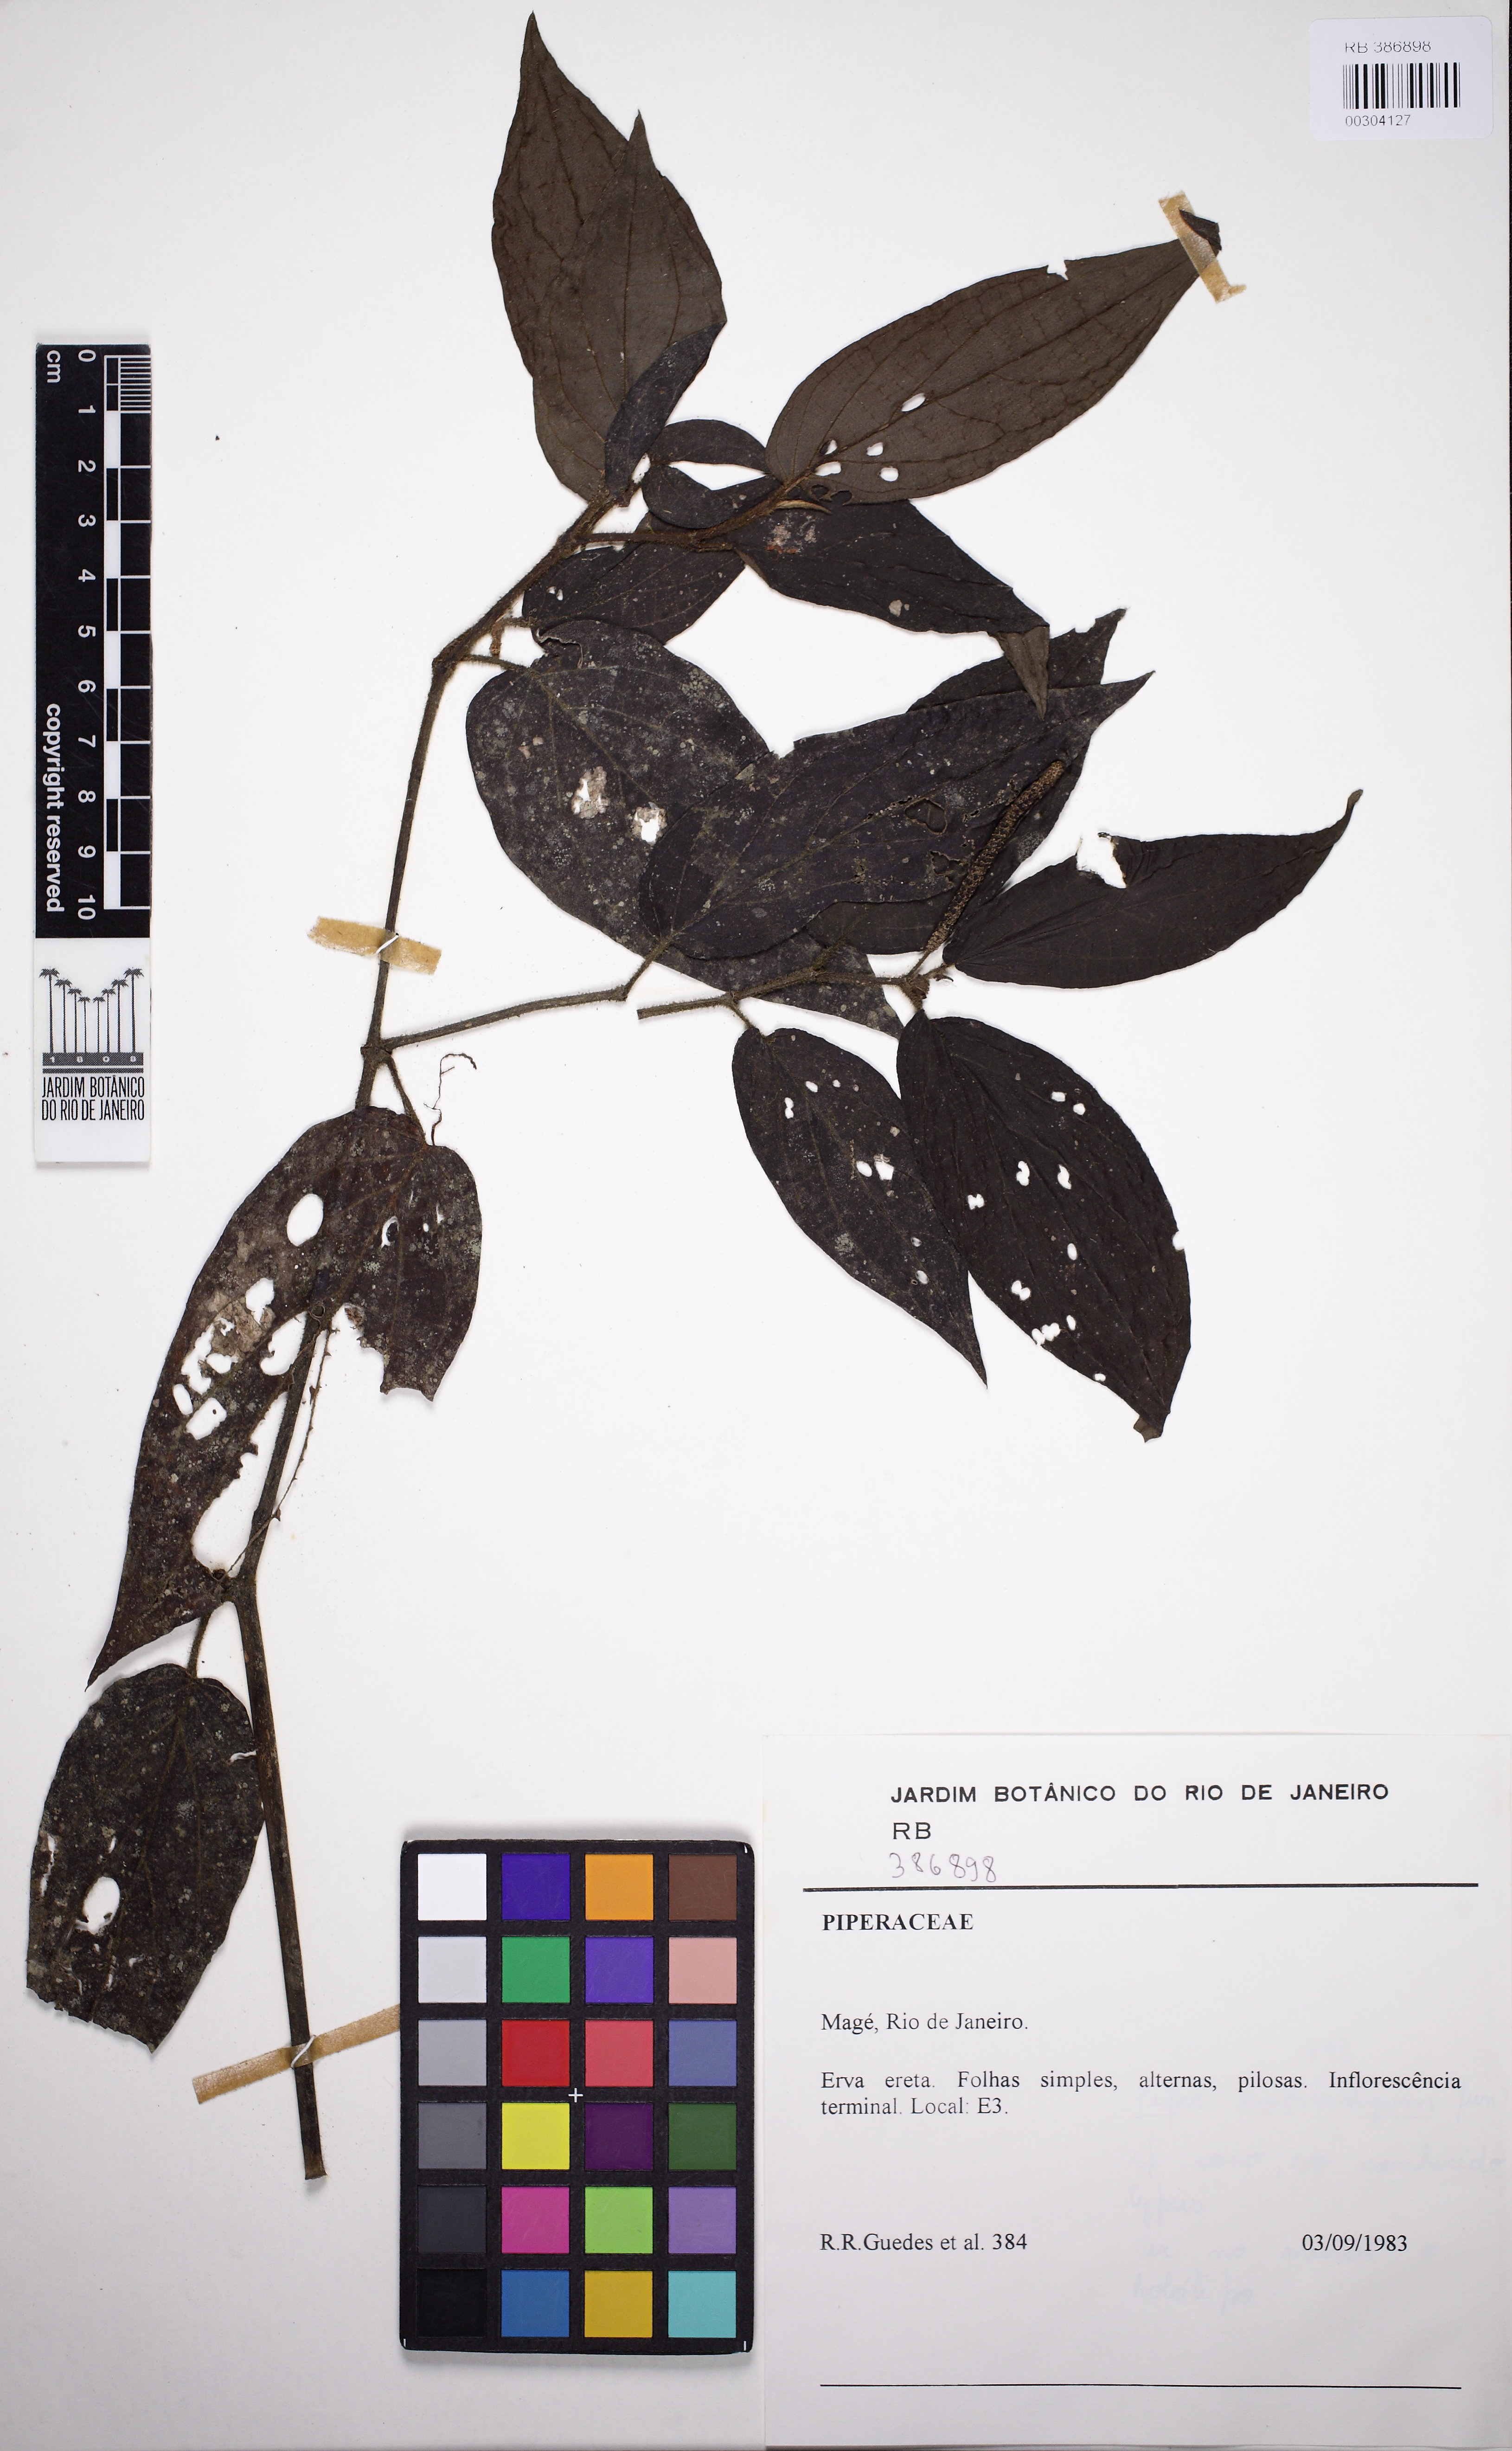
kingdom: Plantae
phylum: Tracheophyta
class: Magnoliopsida
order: Piperales
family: Piperaceae
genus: Piper
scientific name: Piper cubataonum
